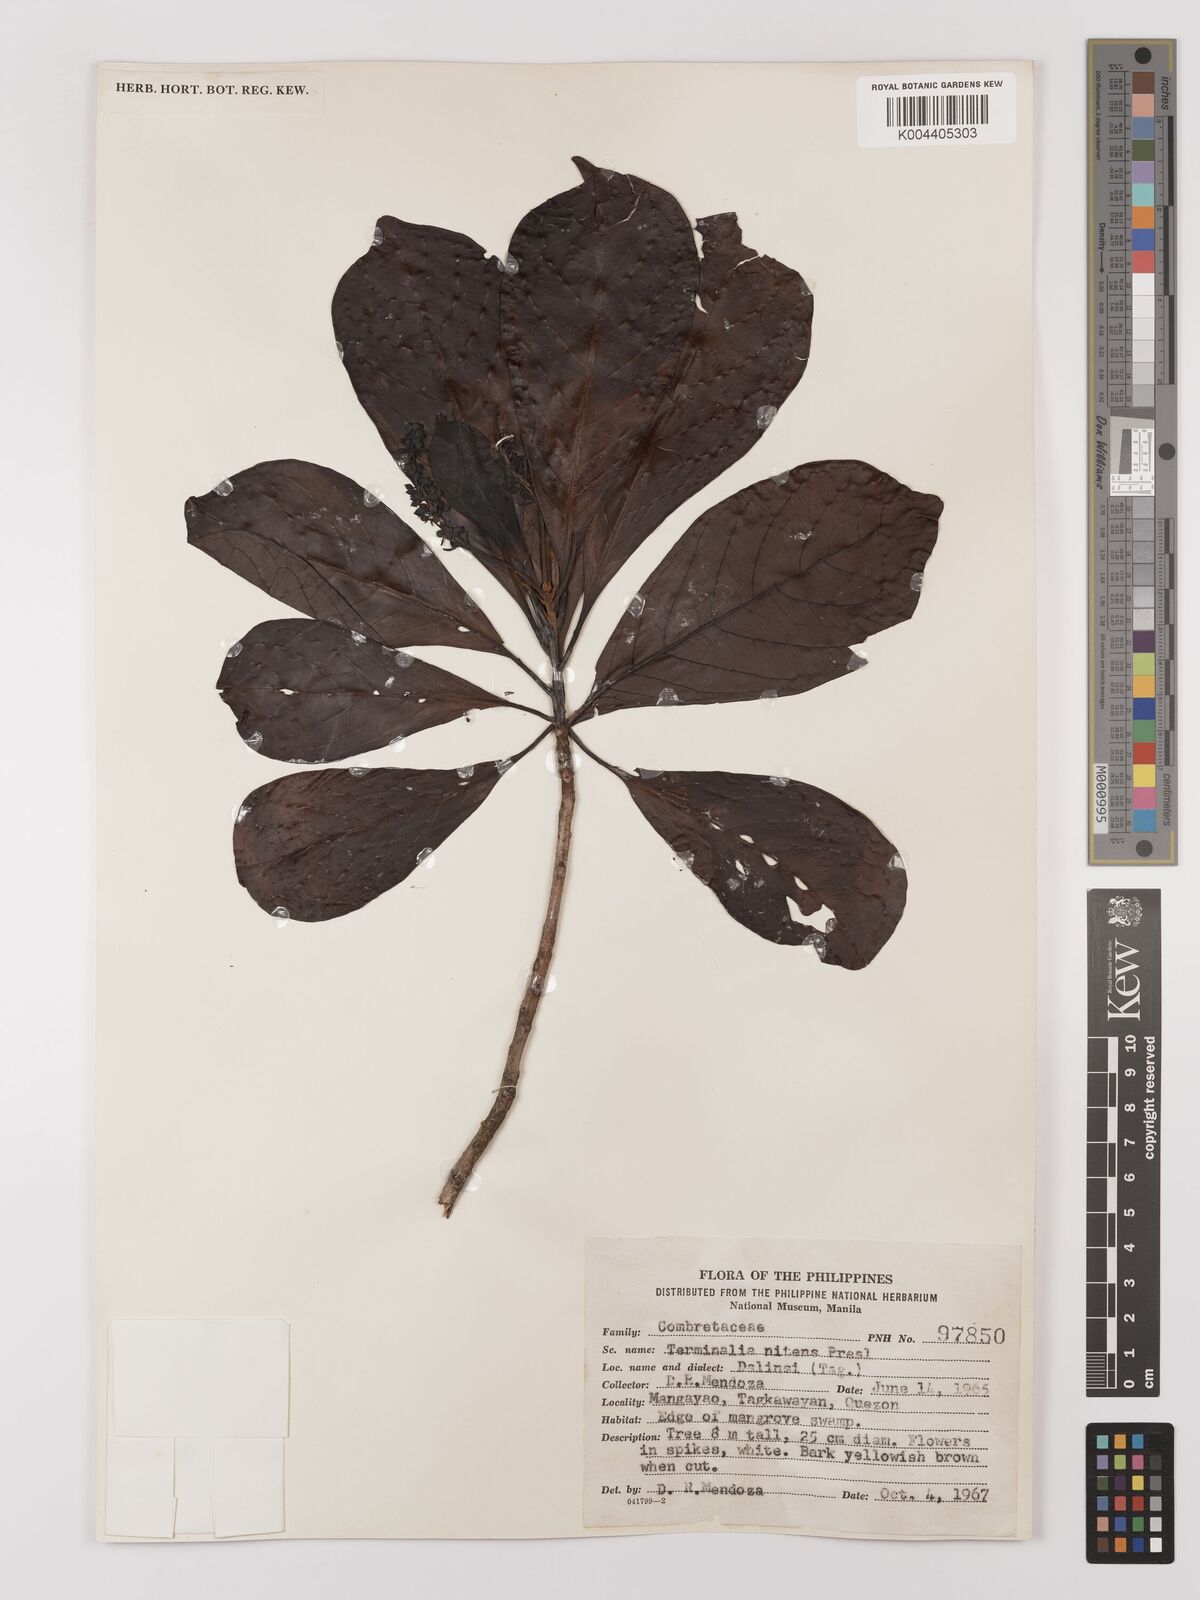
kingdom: Plantae
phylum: Tracheophyta
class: Magnoliopsida
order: Myrtales
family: Combretaceae
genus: Terminalia
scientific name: Terminalia nitens
